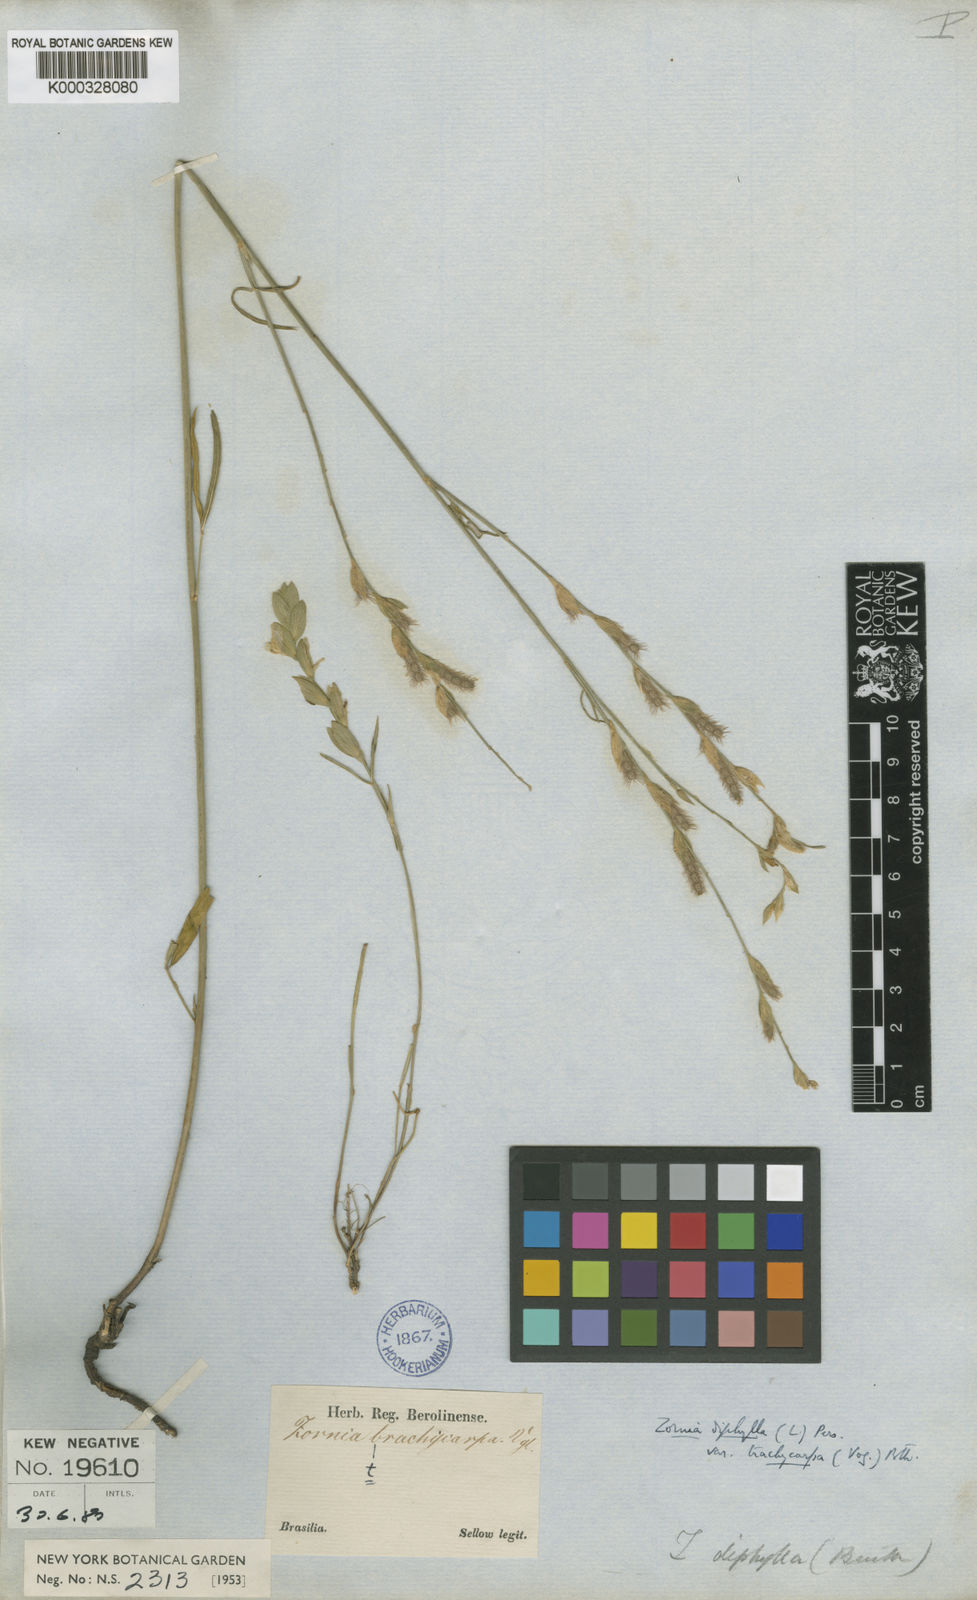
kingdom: Plantae
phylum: Tracheophyta
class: Magnoliopsida
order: Fabales
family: Fabaceae
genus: Zornia
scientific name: Zornia trachycarpa
